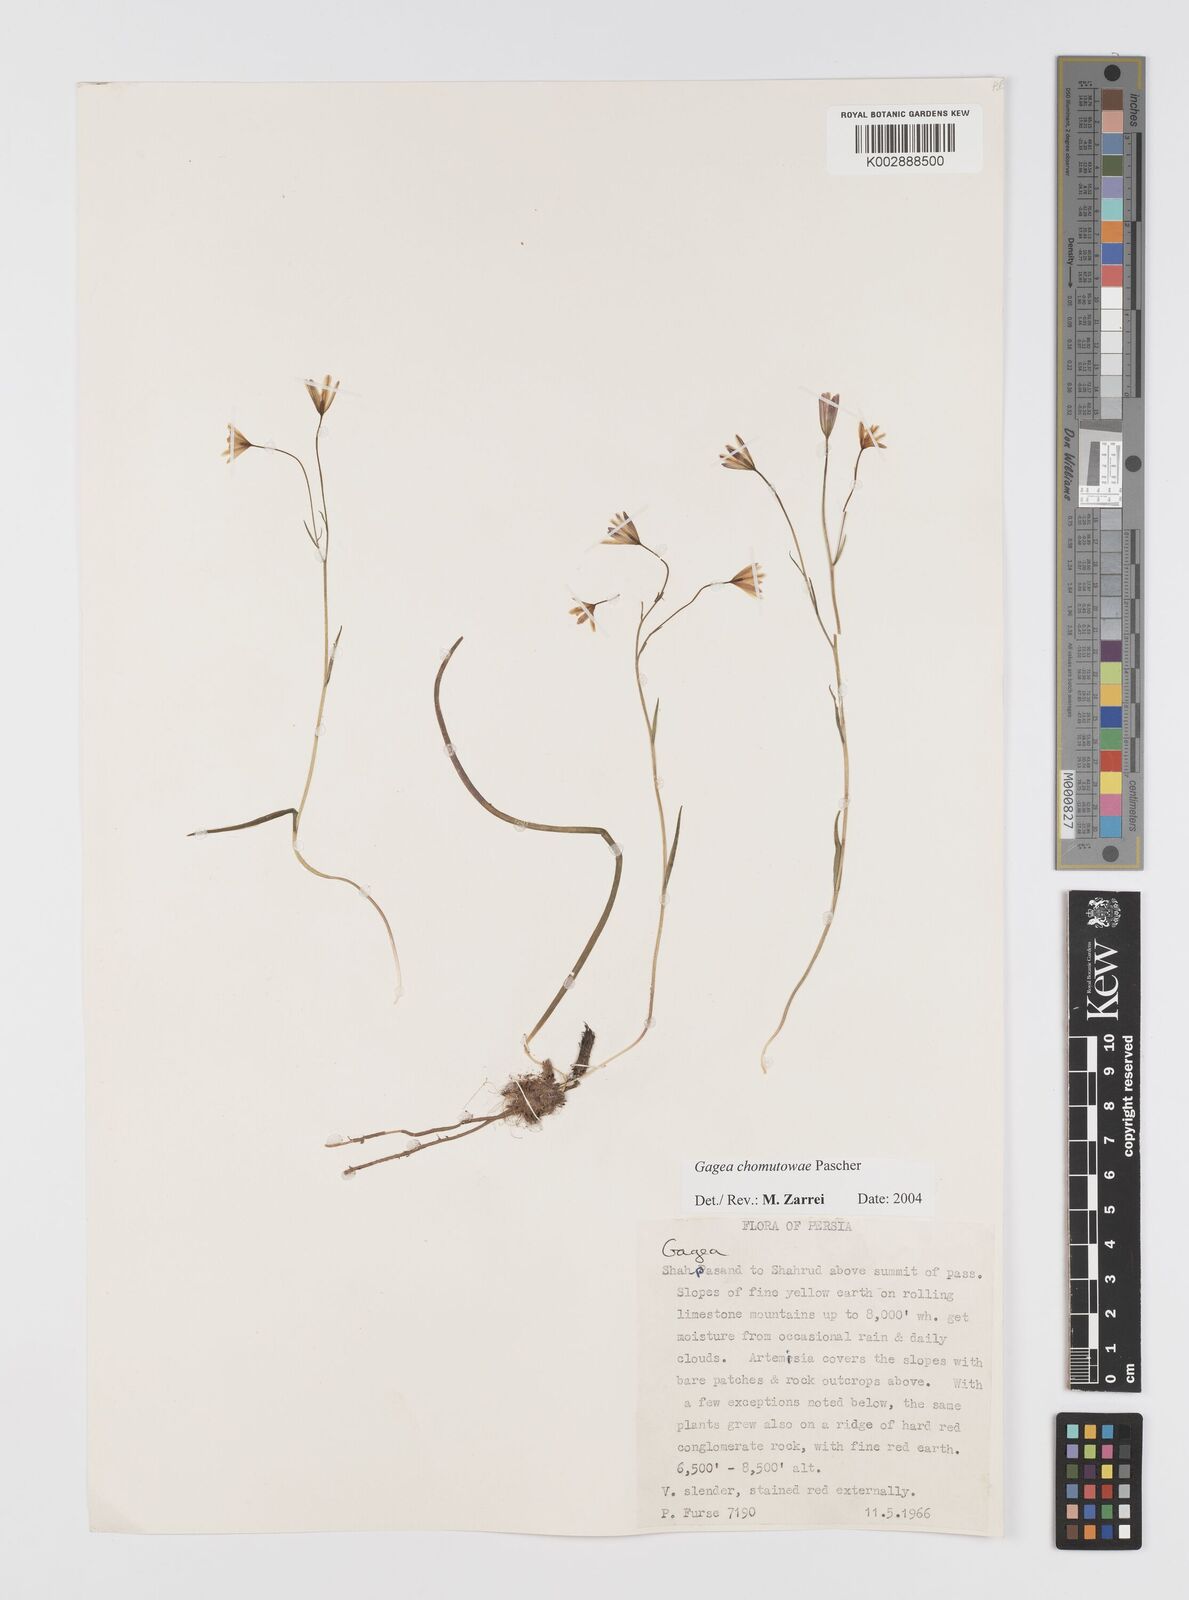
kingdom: Plantae
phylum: Tracheophyta
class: Liliopsida
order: Liliales
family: Liliaceae
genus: Gagea
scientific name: Gagea chomutovae
